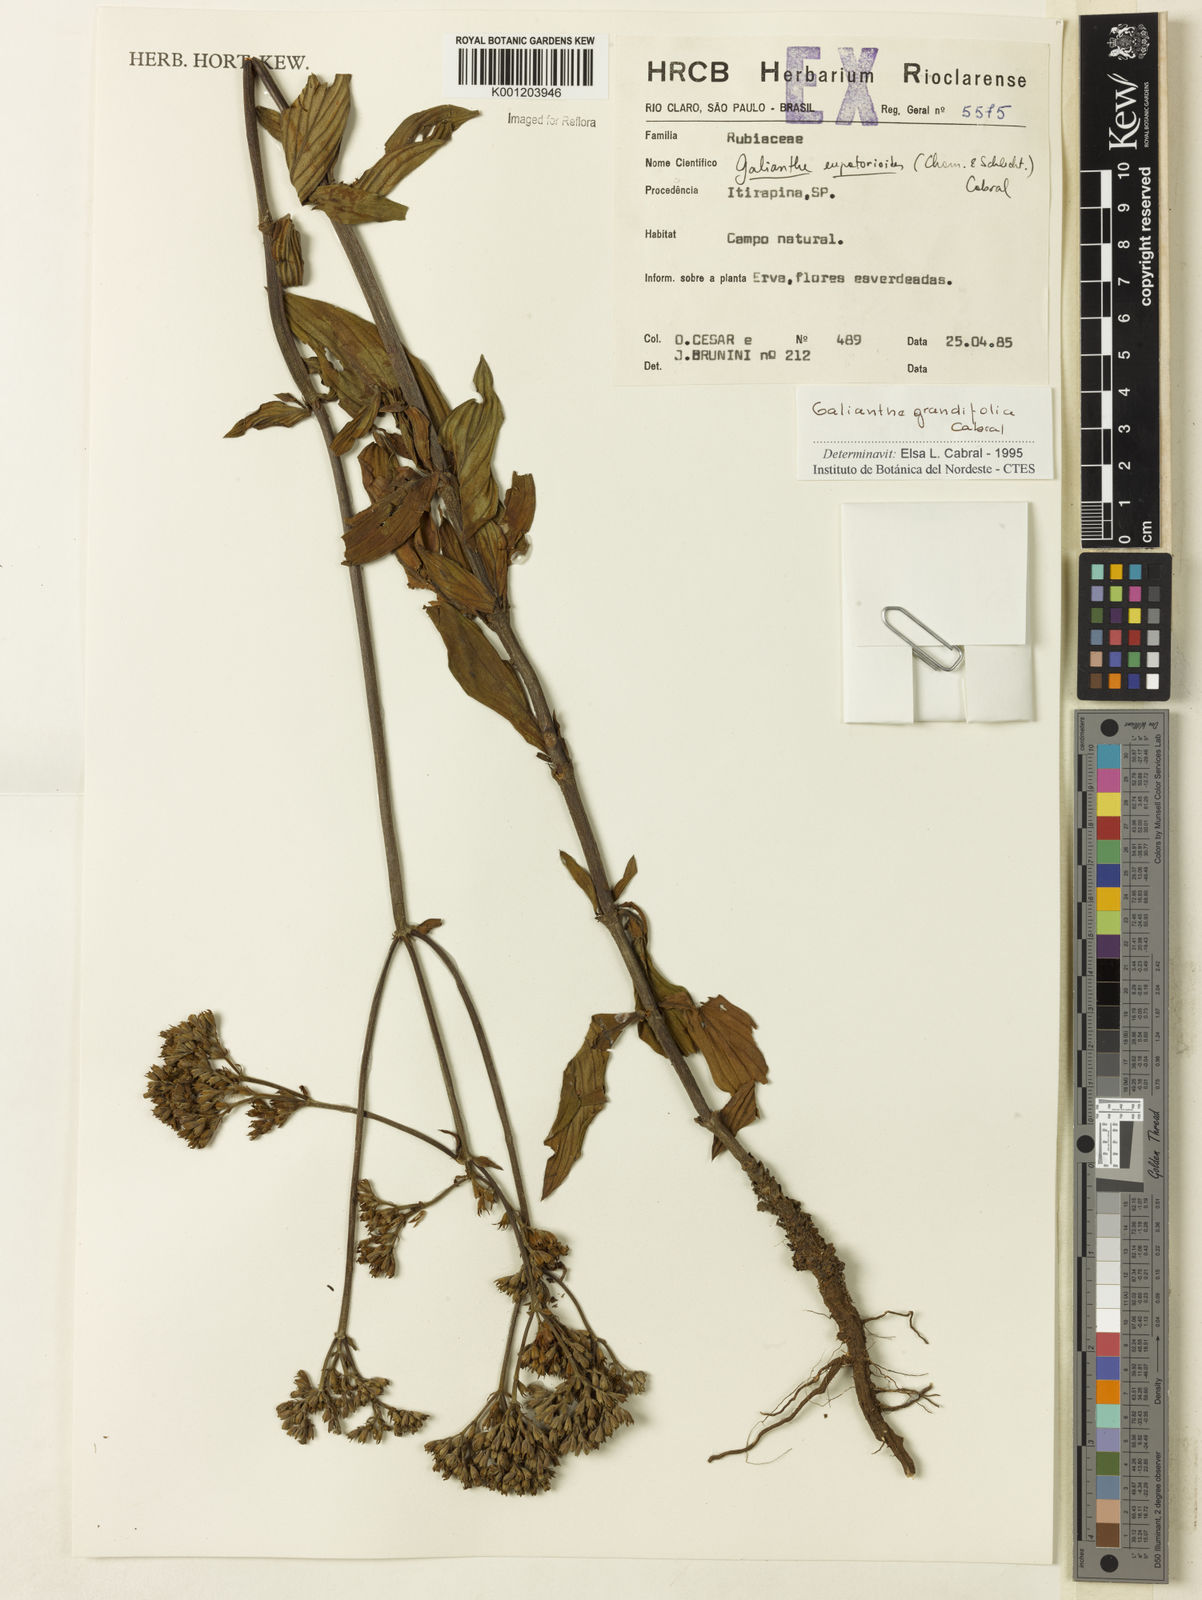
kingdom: Plantae
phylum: Tracheophyta
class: Magnoliopsida
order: Gentianales
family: Rubiaceae
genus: Galianthe
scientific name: Galianthe grandifolia
